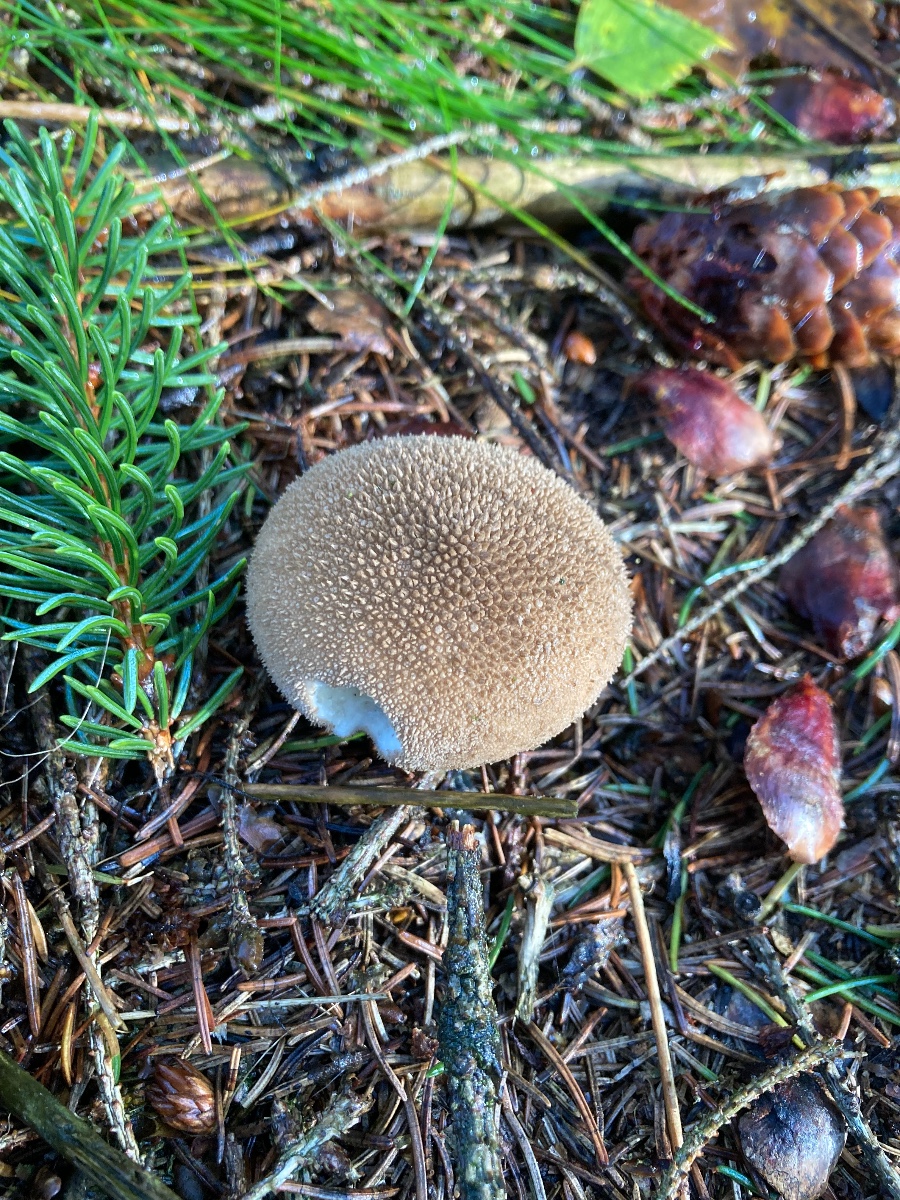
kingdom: Fungi
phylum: Basidiomycota
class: Agaricomycetes
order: Agaricales
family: Agaricaceae
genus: Lycoperdon
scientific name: Lycoperdon
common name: støvbold
